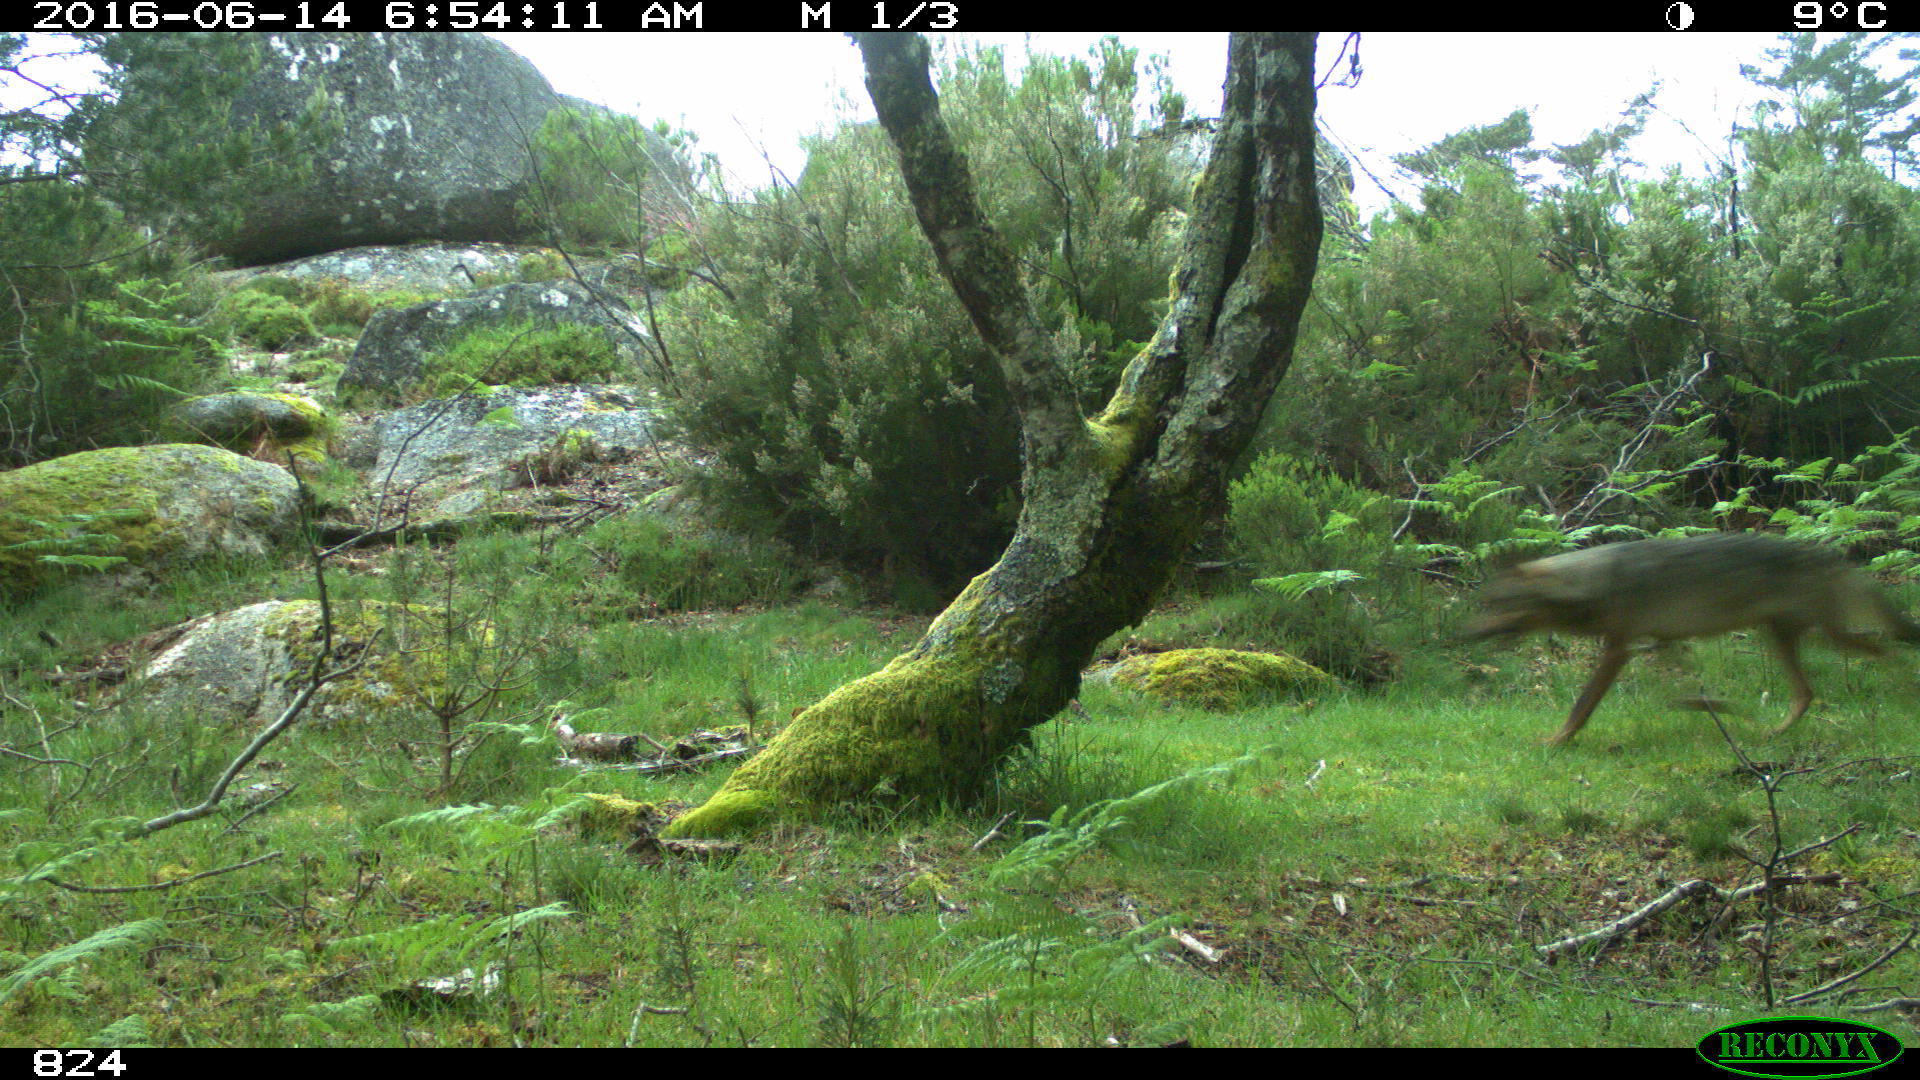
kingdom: Animalia
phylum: Chordata
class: Mammalia
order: Carnivora
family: Canidae
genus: Canis
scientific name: Canis lupus
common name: Gray wolf
